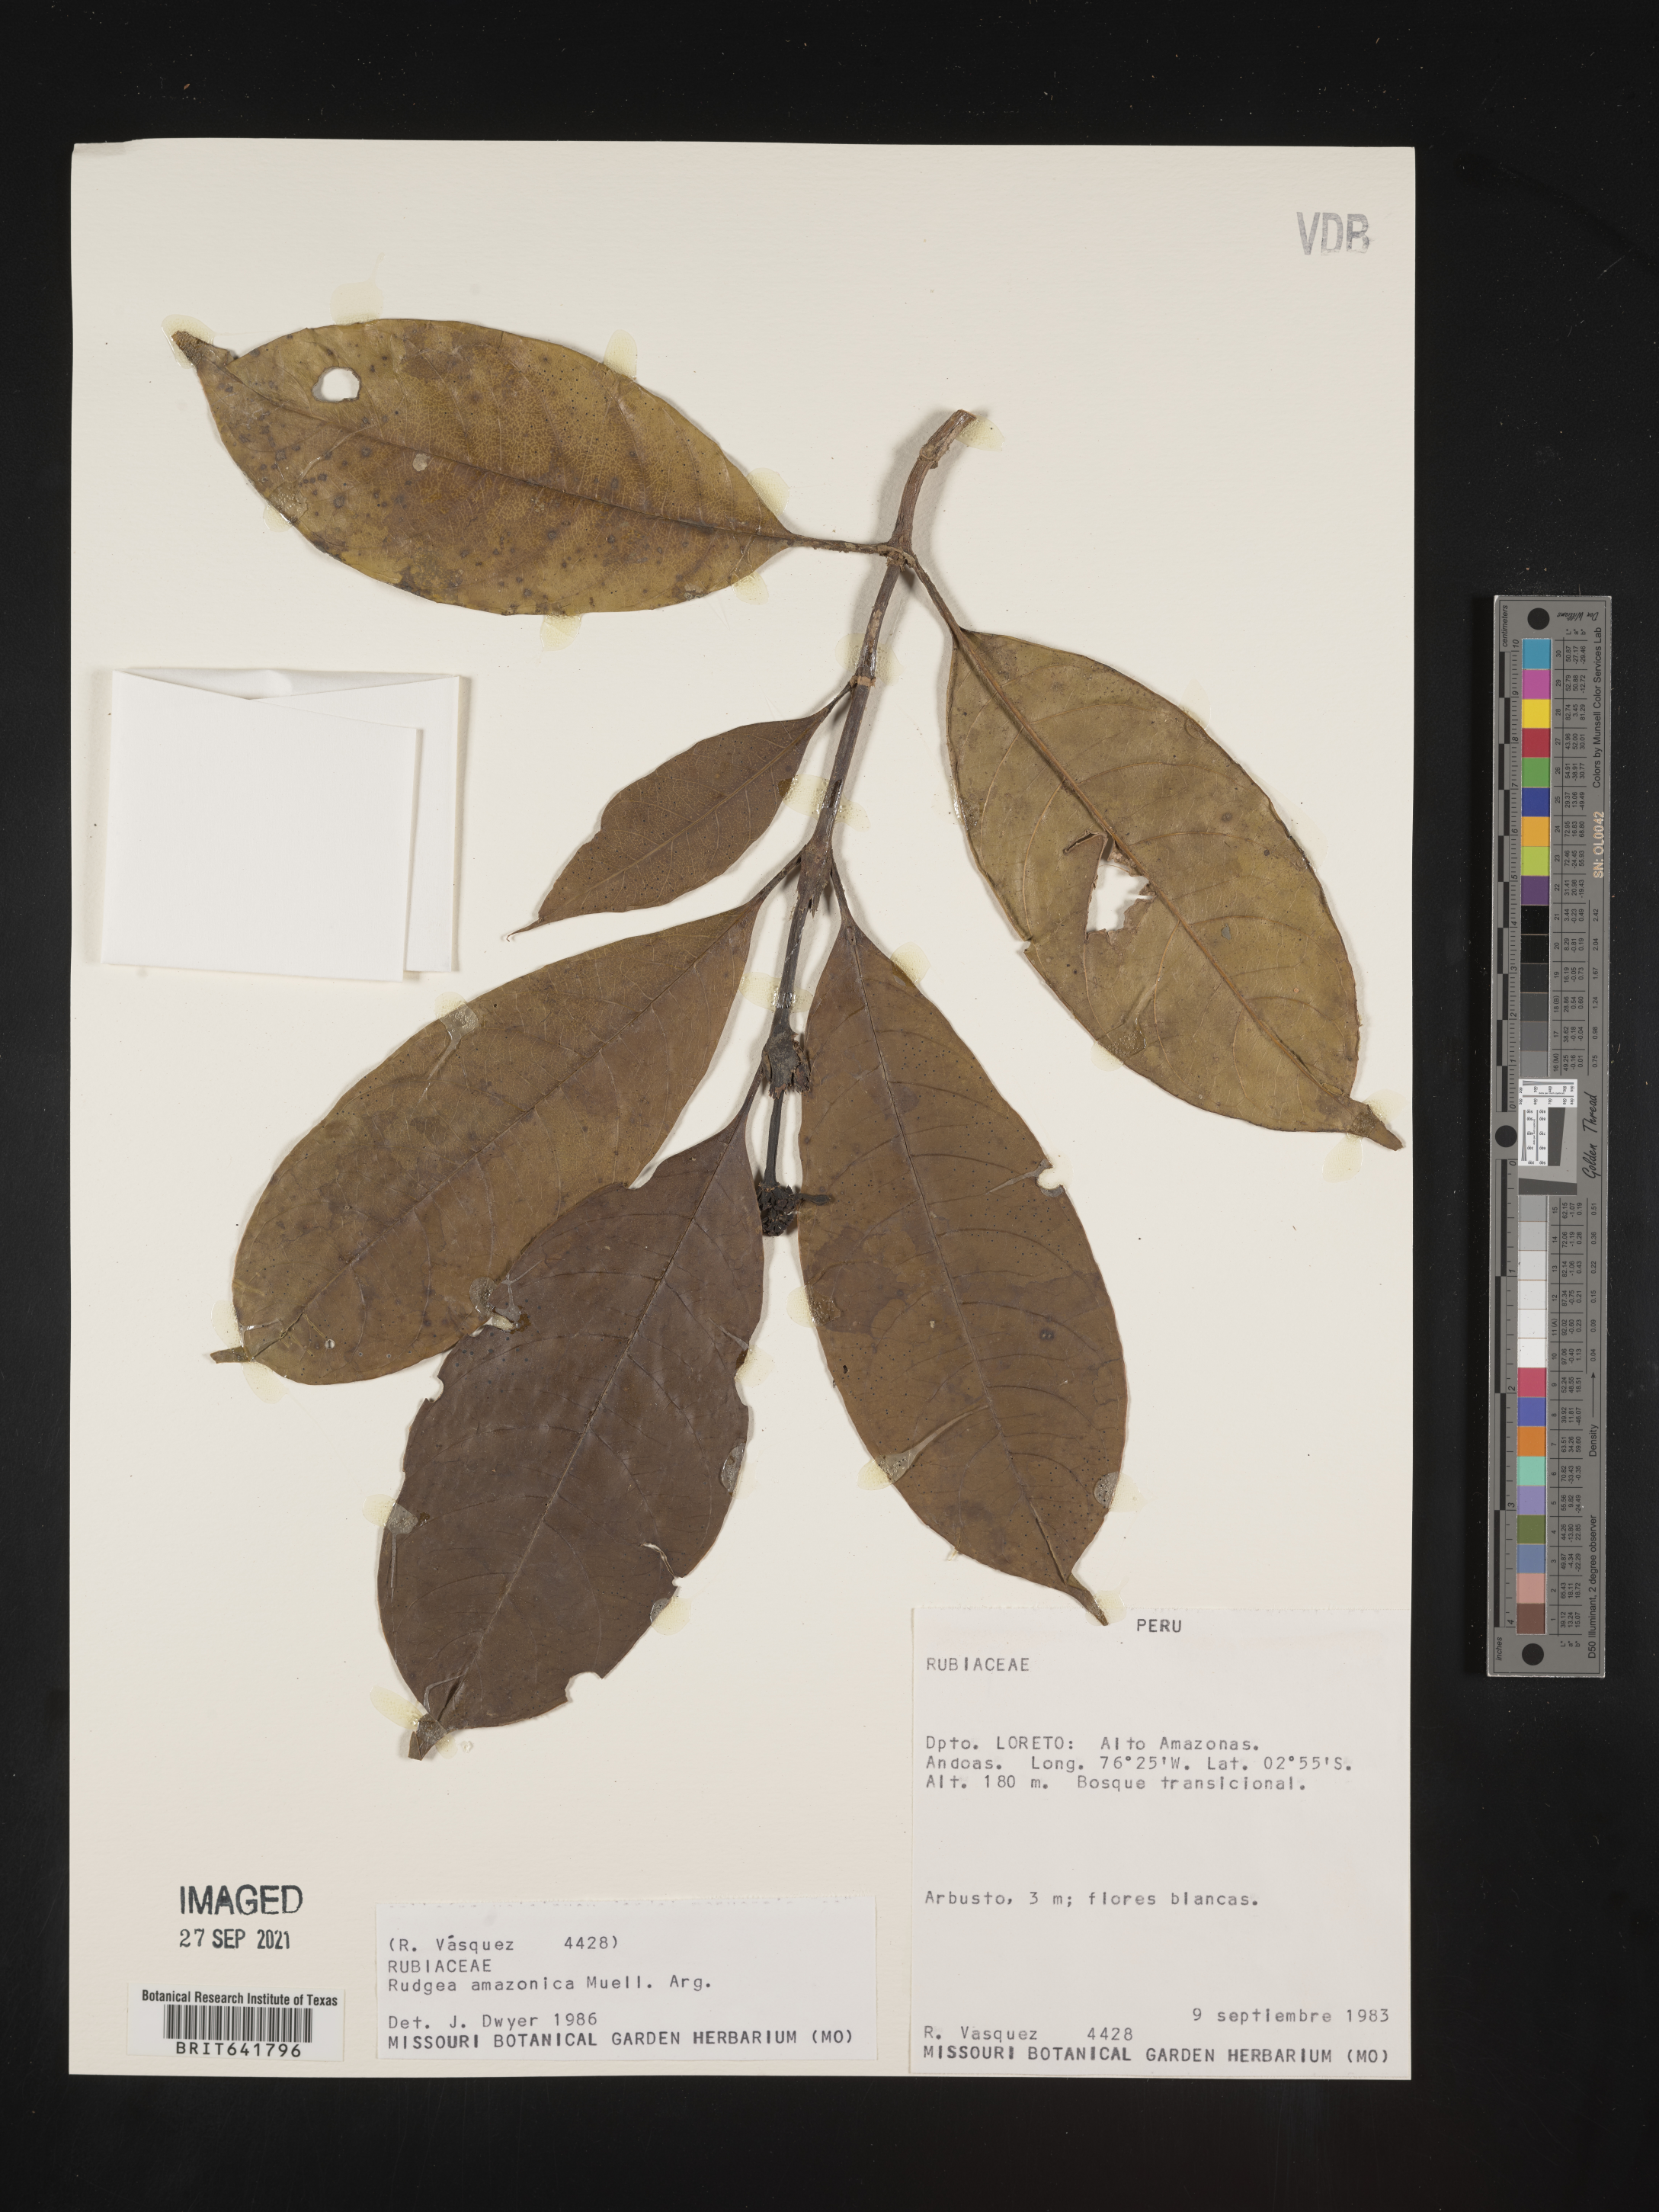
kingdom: Plantae
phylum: Tracheophyta
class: Magnoliopsida
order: Gentianales
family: Rubiaceae
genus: Rudgea
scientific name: Rudgea
